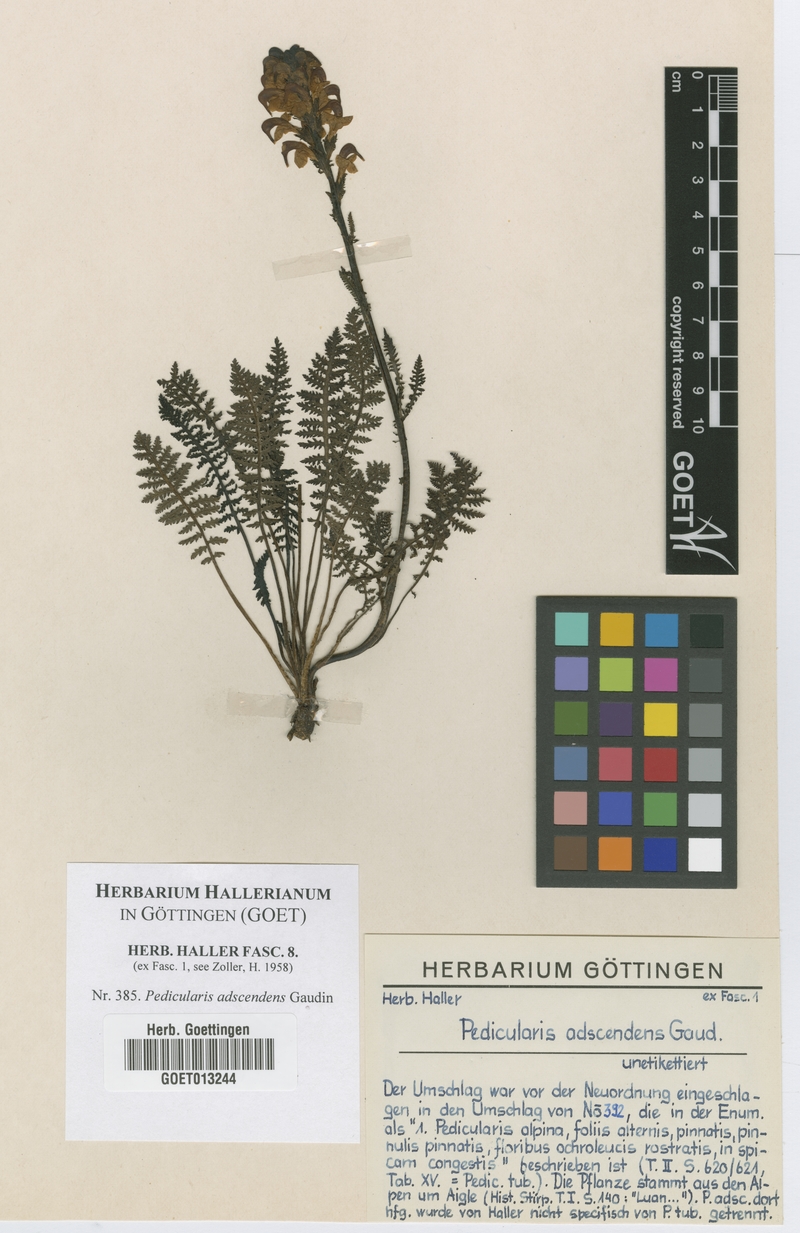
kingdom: Plantae
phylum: Tracheophyta
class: Magnoliopsida
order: Lamiales
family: Orobanchaceae
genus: Pedicularis
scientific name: Pedicularis ascendens
